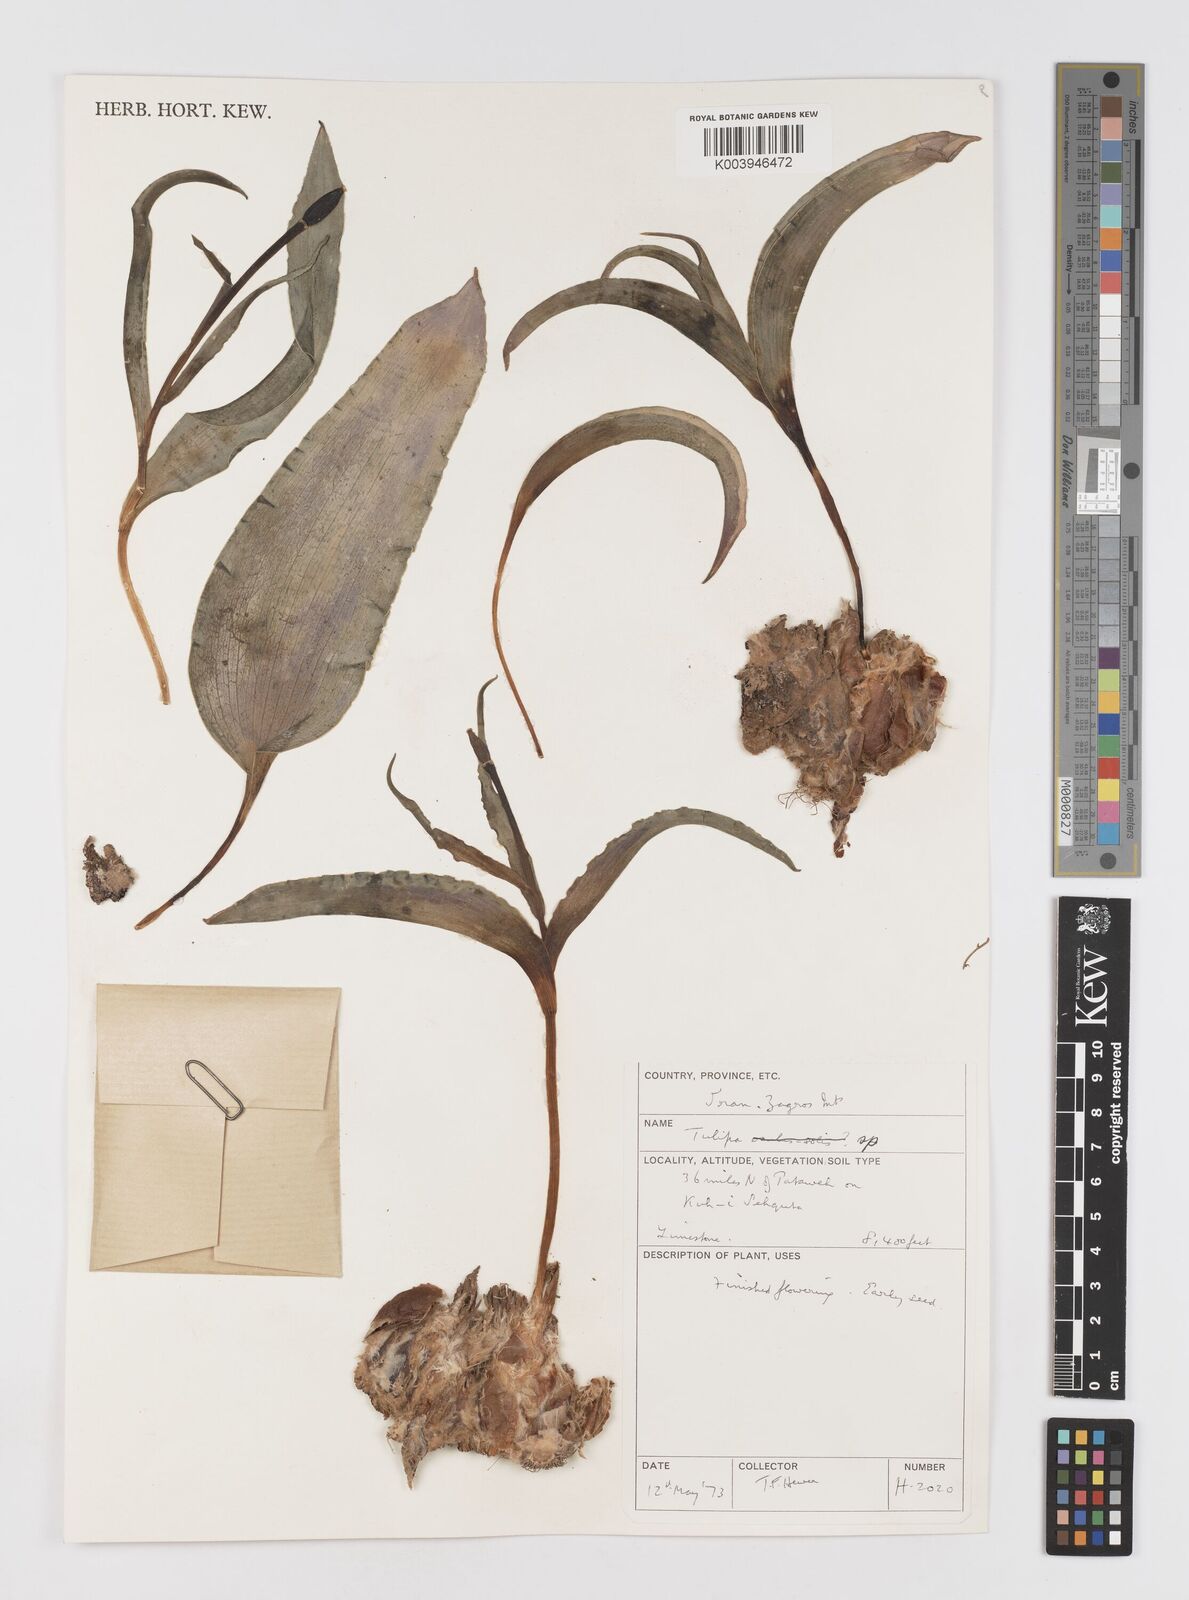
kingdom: Plantae
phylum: Tracheophyta
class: Liliopsida
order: Liliales
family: Liliaceae
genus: Tulipa
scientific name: Tulipa
